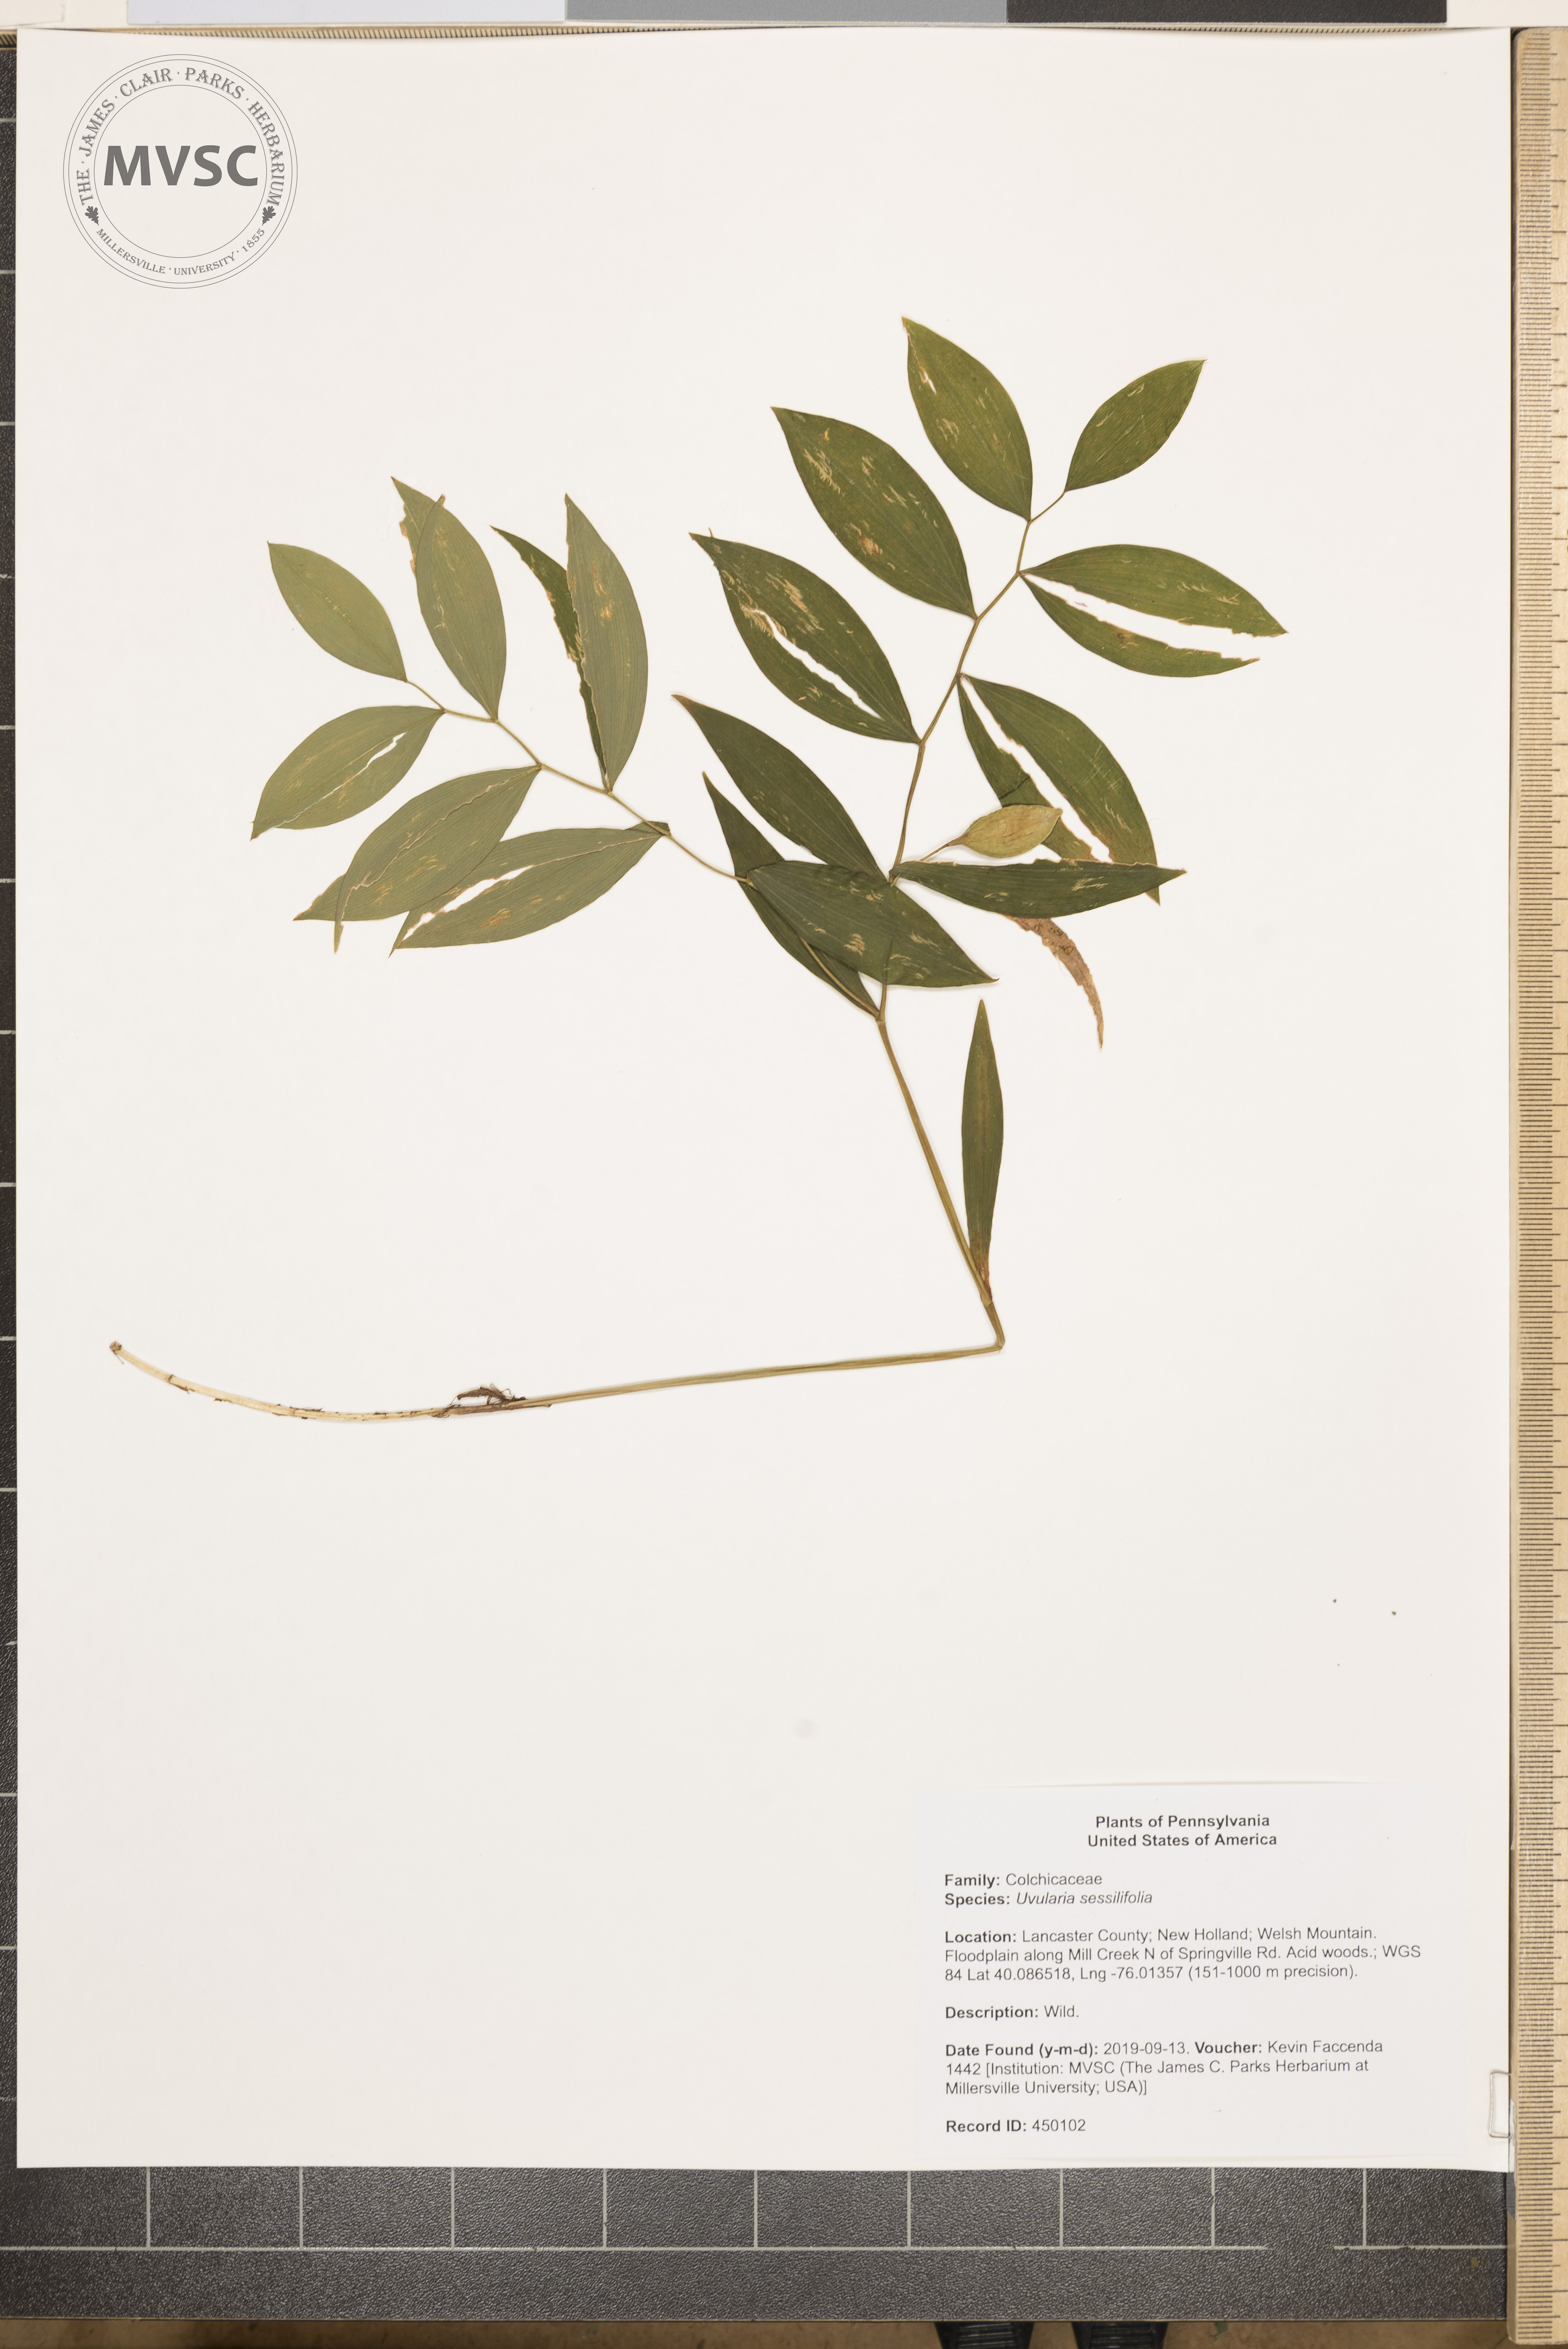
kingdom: Plantae
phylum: Tracheophyta
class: Liliopsida
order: Liliales
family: Colchicaceae
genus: Uvularia
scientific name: Uvularia sessilifolia
